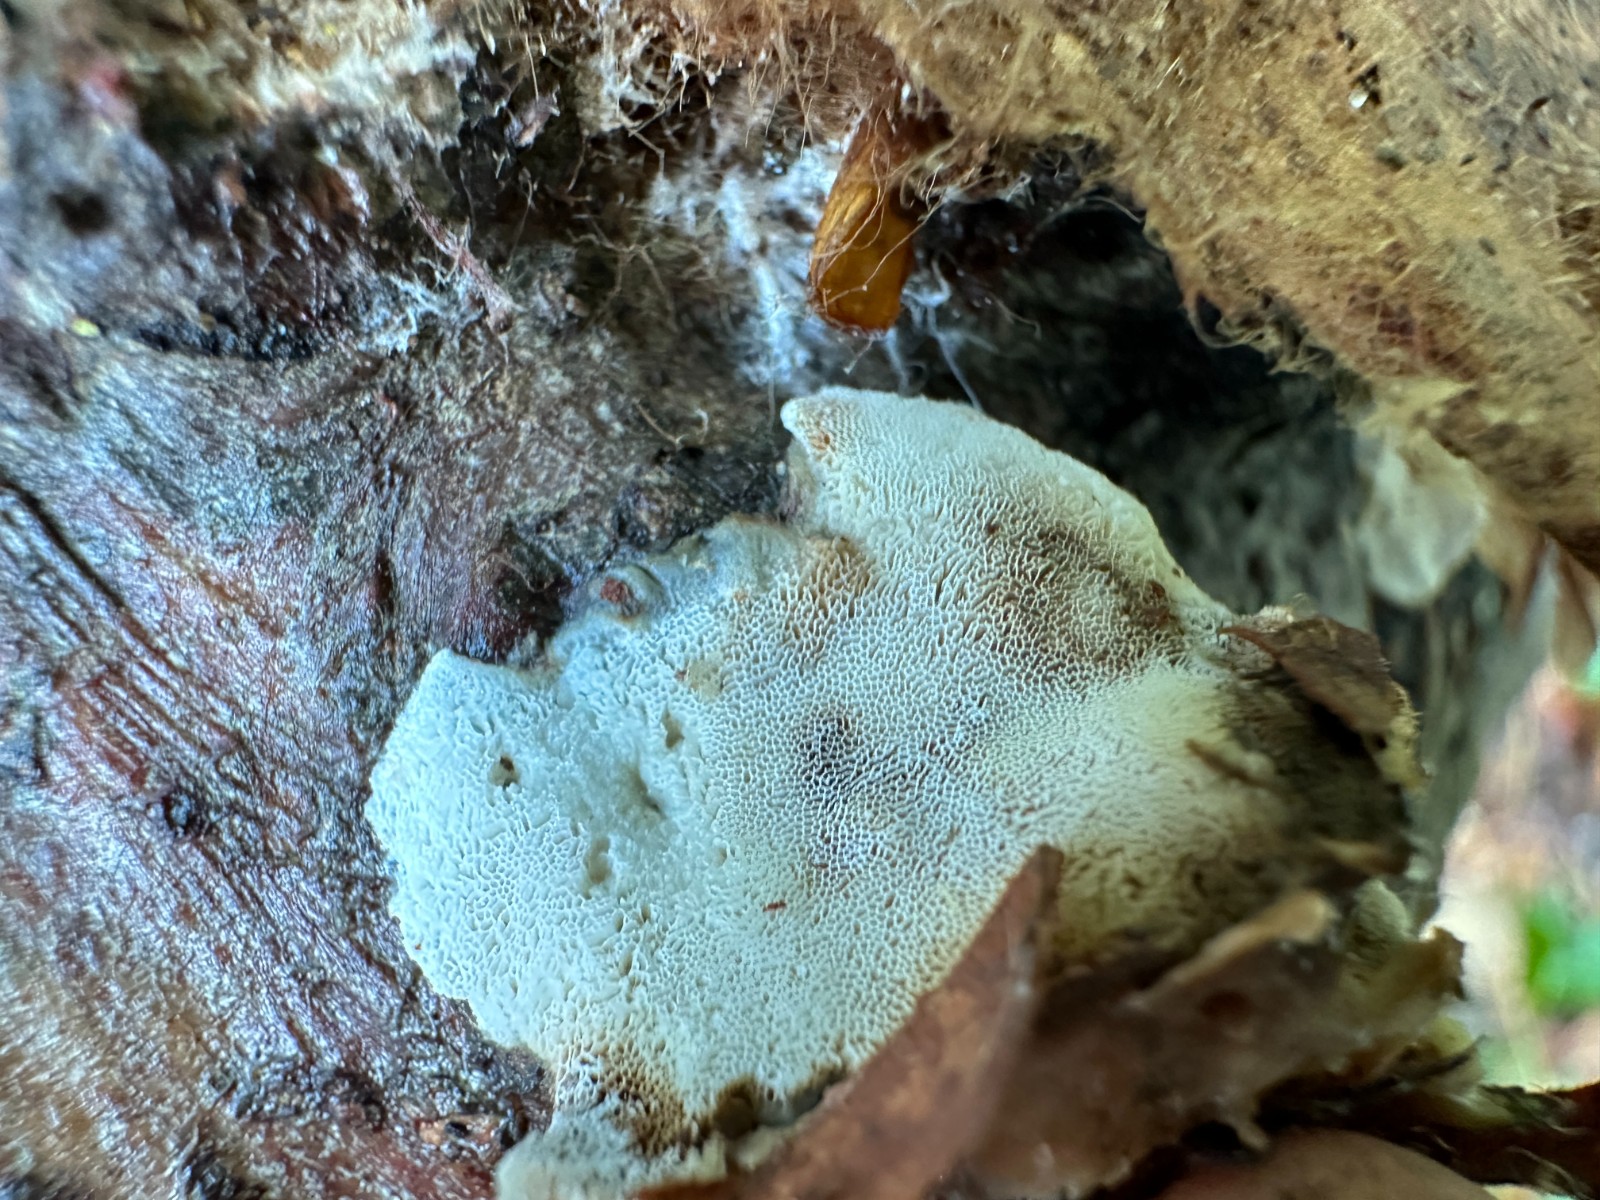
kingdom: Fungi
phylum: Basidiomycota
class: Agaricomycetes
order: Polyporales
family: Incrustoporiaceae
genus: Skeletocutis
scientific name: Skeletocutis nemoralis
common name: stor krystalporesvamp
